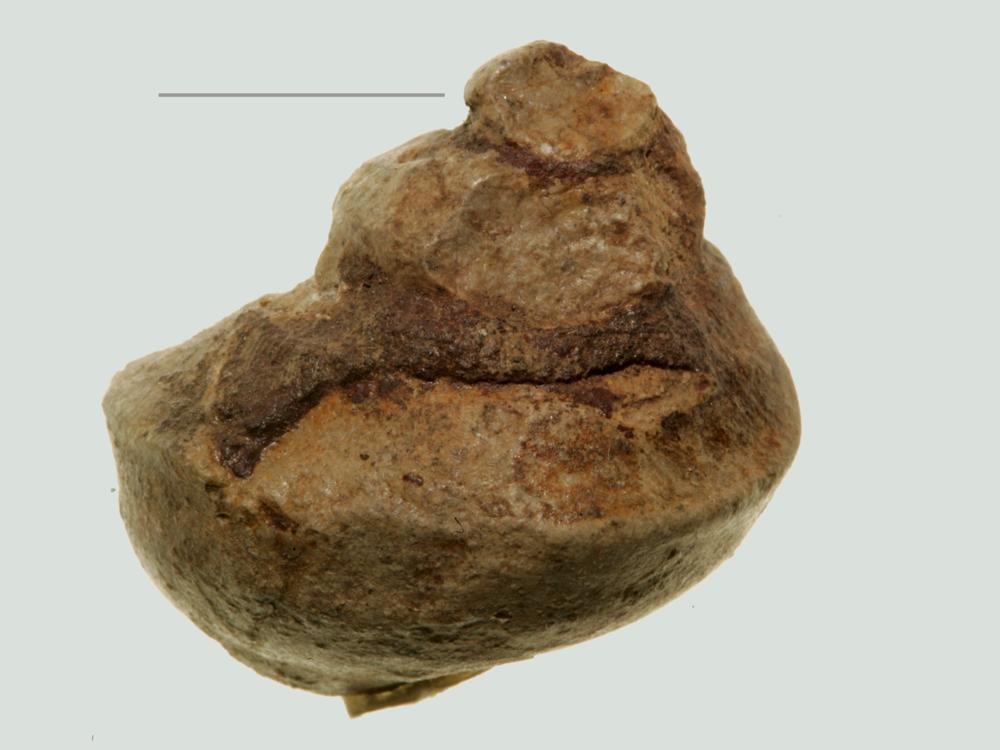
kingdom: Animalia
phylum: Mollusca
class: Gastropoda
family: Lophospiridae
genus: Ruedemannia
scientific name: Ruedemannia lirata
